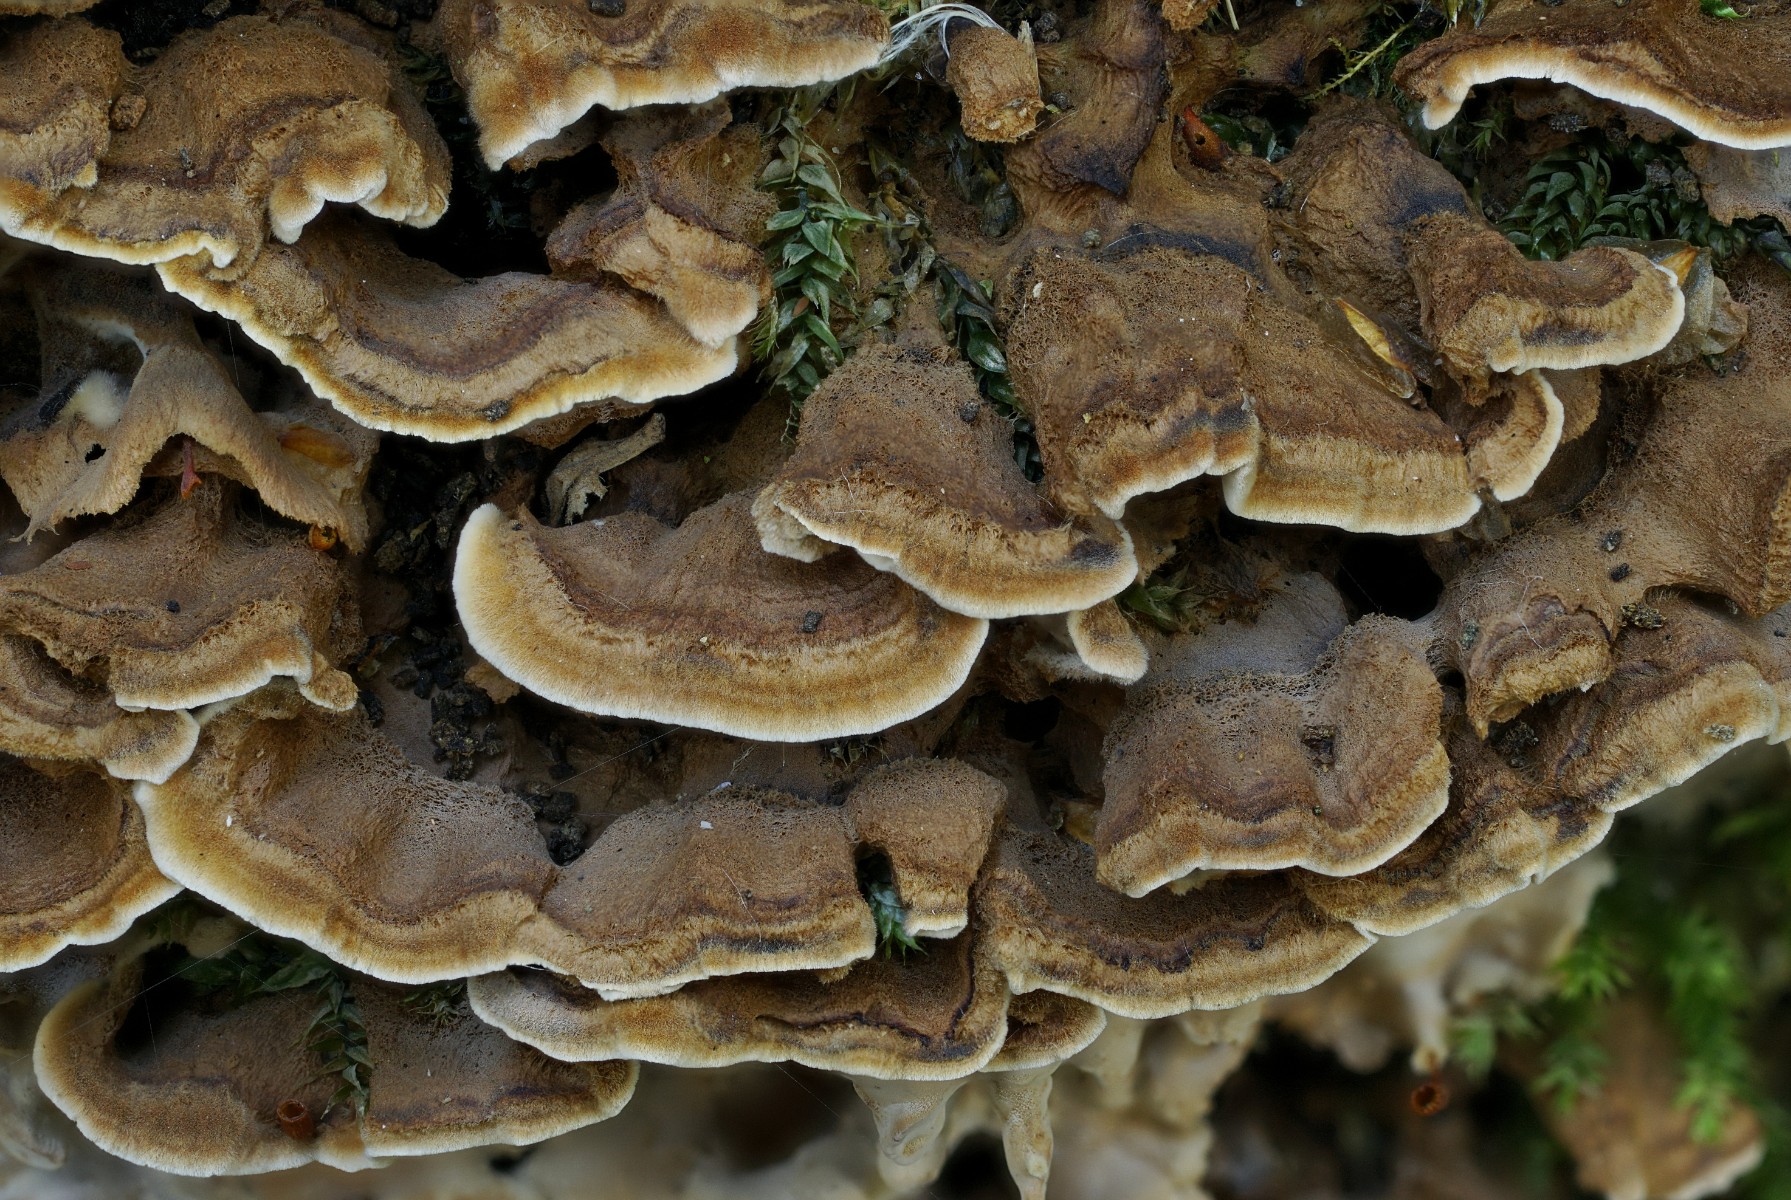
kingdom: Fungi
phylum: Basidiomycota
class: Agaricomycetes
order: Russulales
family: Hericiaceae
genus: Laxitextum
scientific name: Laxitextum bicolor
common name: tvefarvet filtskind
